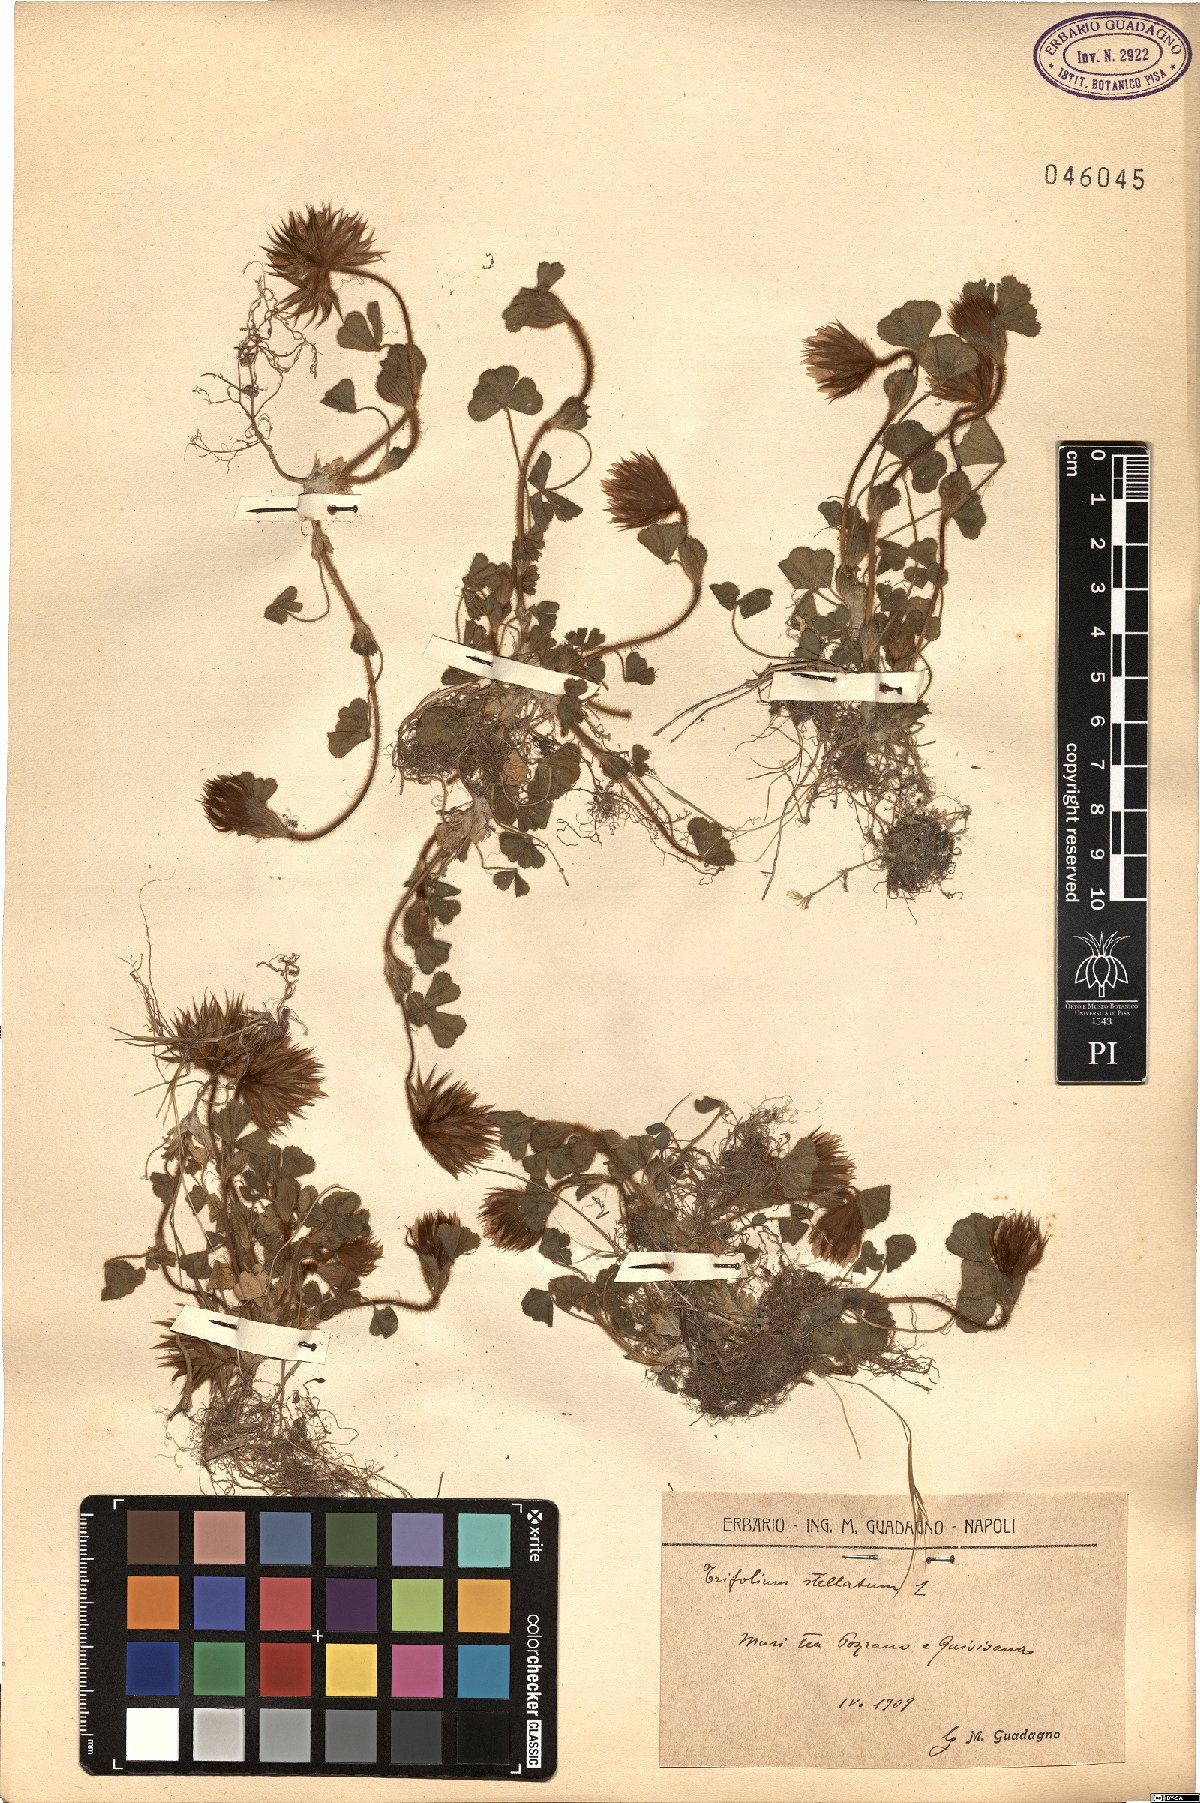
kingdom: Plantae
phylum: Tracheophyta
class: Magnoliopsida
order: Fabales
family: Fabaceae
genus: Trifolium
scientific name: Trifolium stellatum
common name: Starry clover
